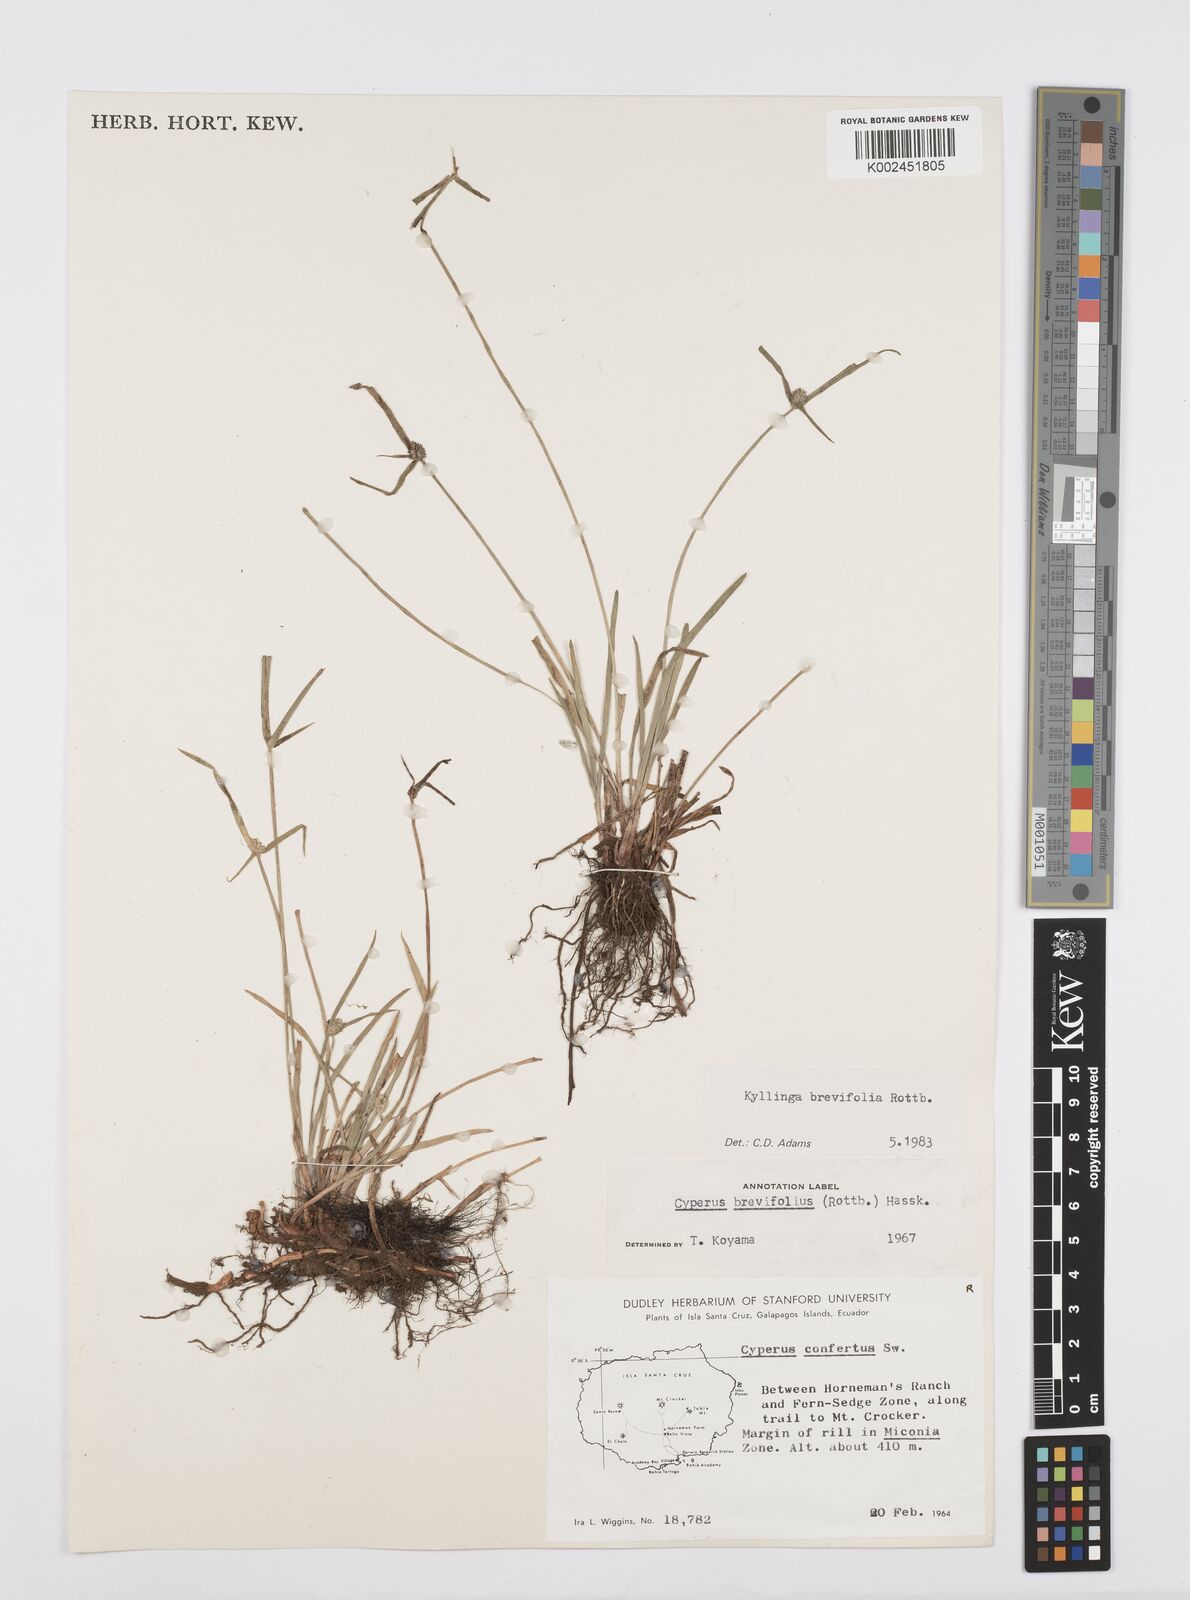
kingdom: Plantae
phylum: Tracheophyta
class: Liliopsida
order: Poales
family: Cyperaceae
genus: Cyperus
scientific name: Cyperus brevifolius
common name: Globe kyllinga
